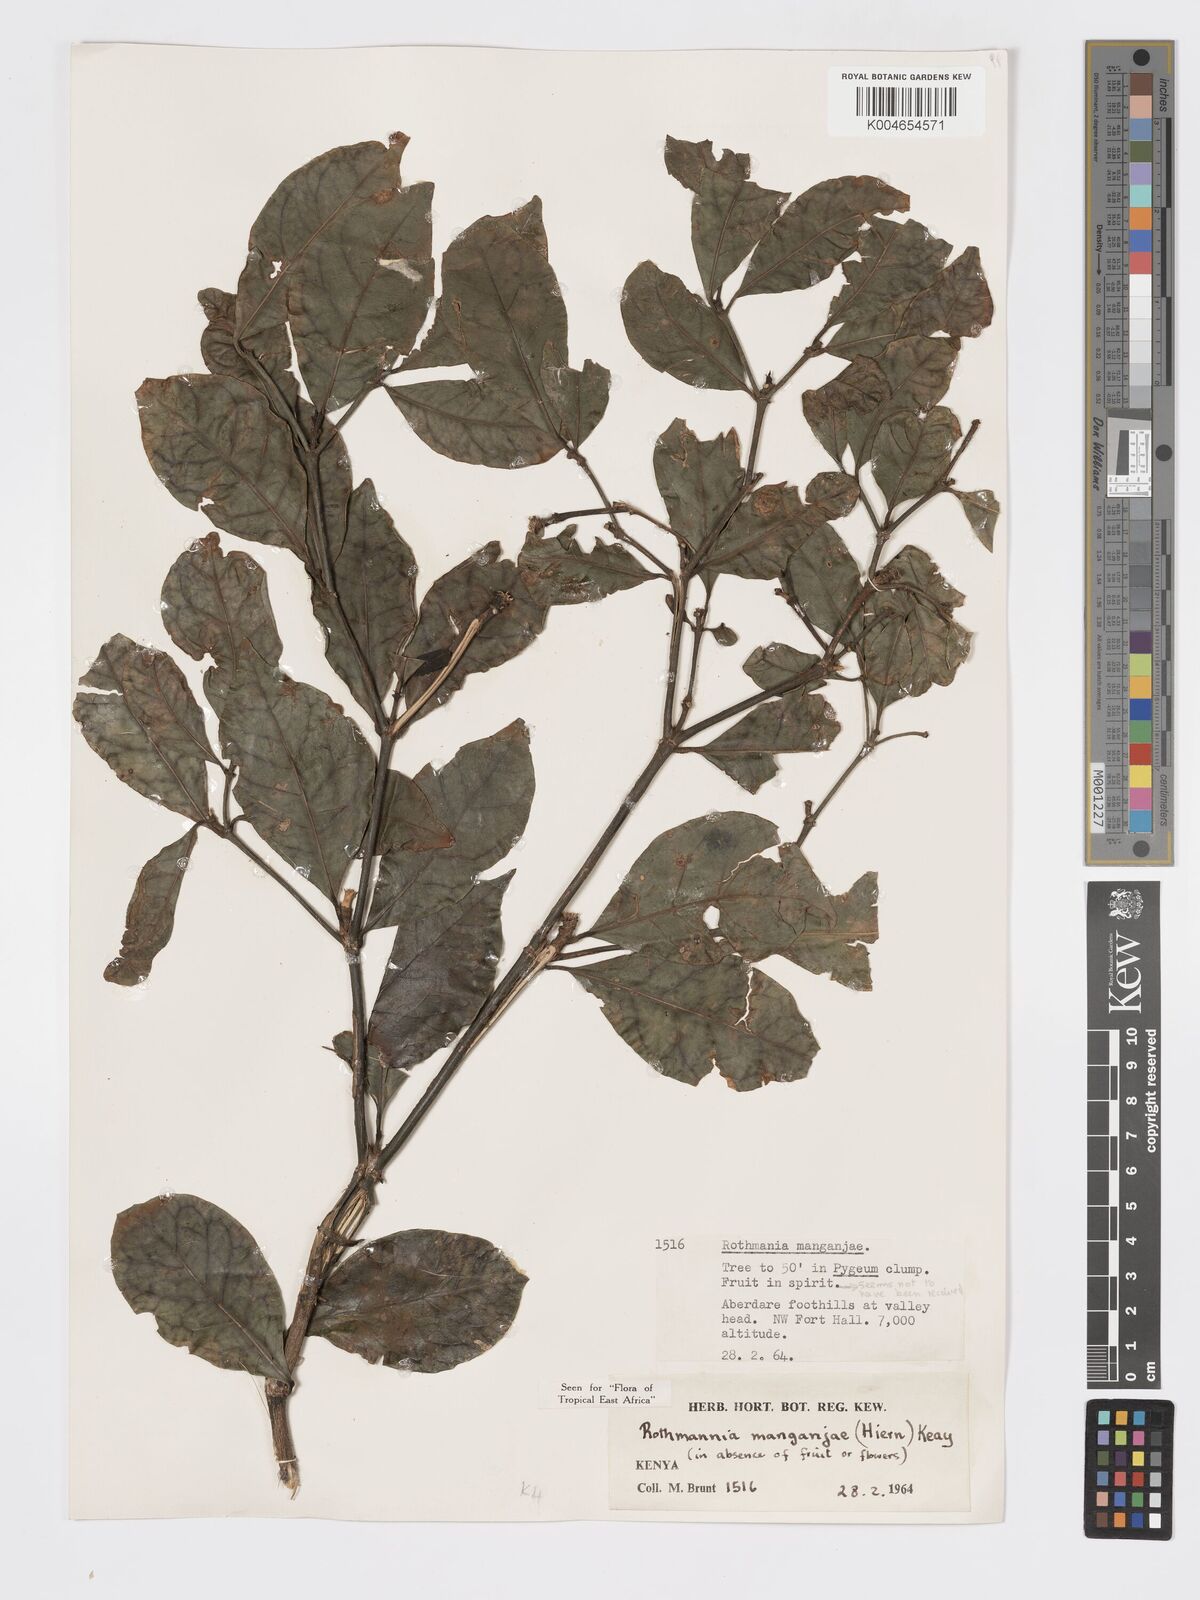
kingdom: Plantae
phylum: Tracheophyta
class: Magnoliopsida
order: Gentianales
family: Rubiaceae
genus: Rothmannia
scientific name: Rothmannia manganjae
